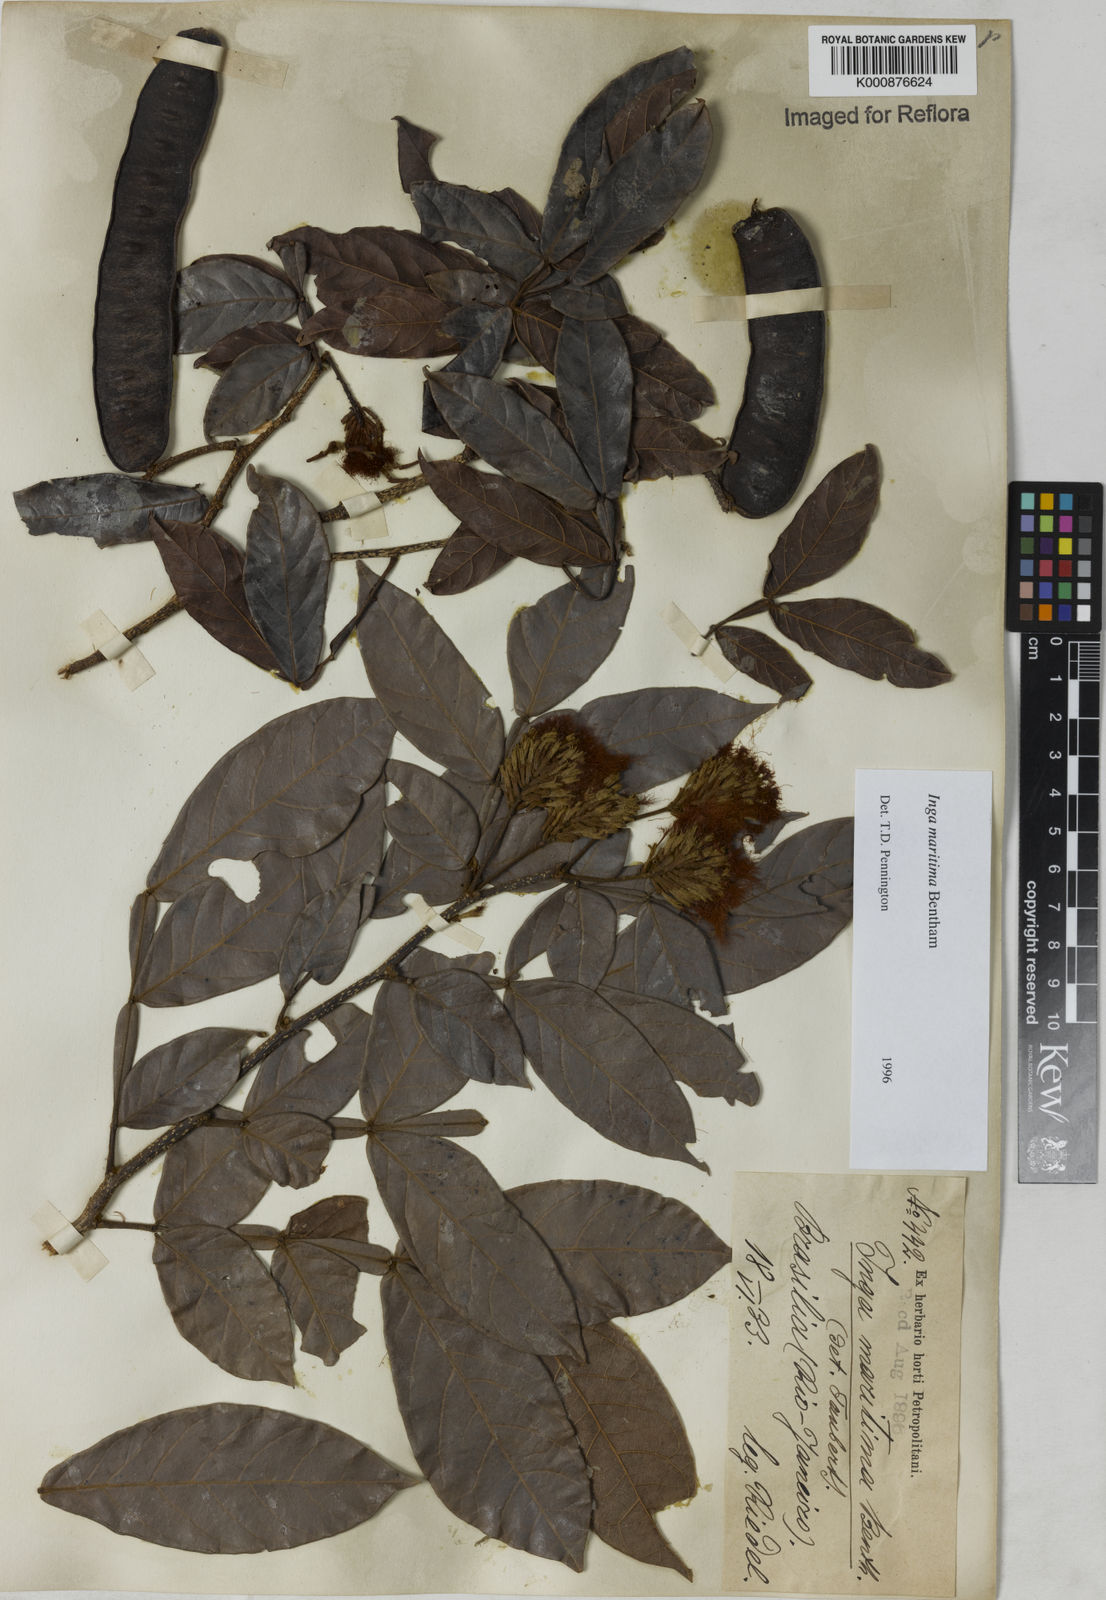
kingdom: Plantae
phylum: Tracheophyta
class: Magnoliopsida
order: Fabales
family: Fabaceae
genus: Inga
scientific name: Inga maritima
